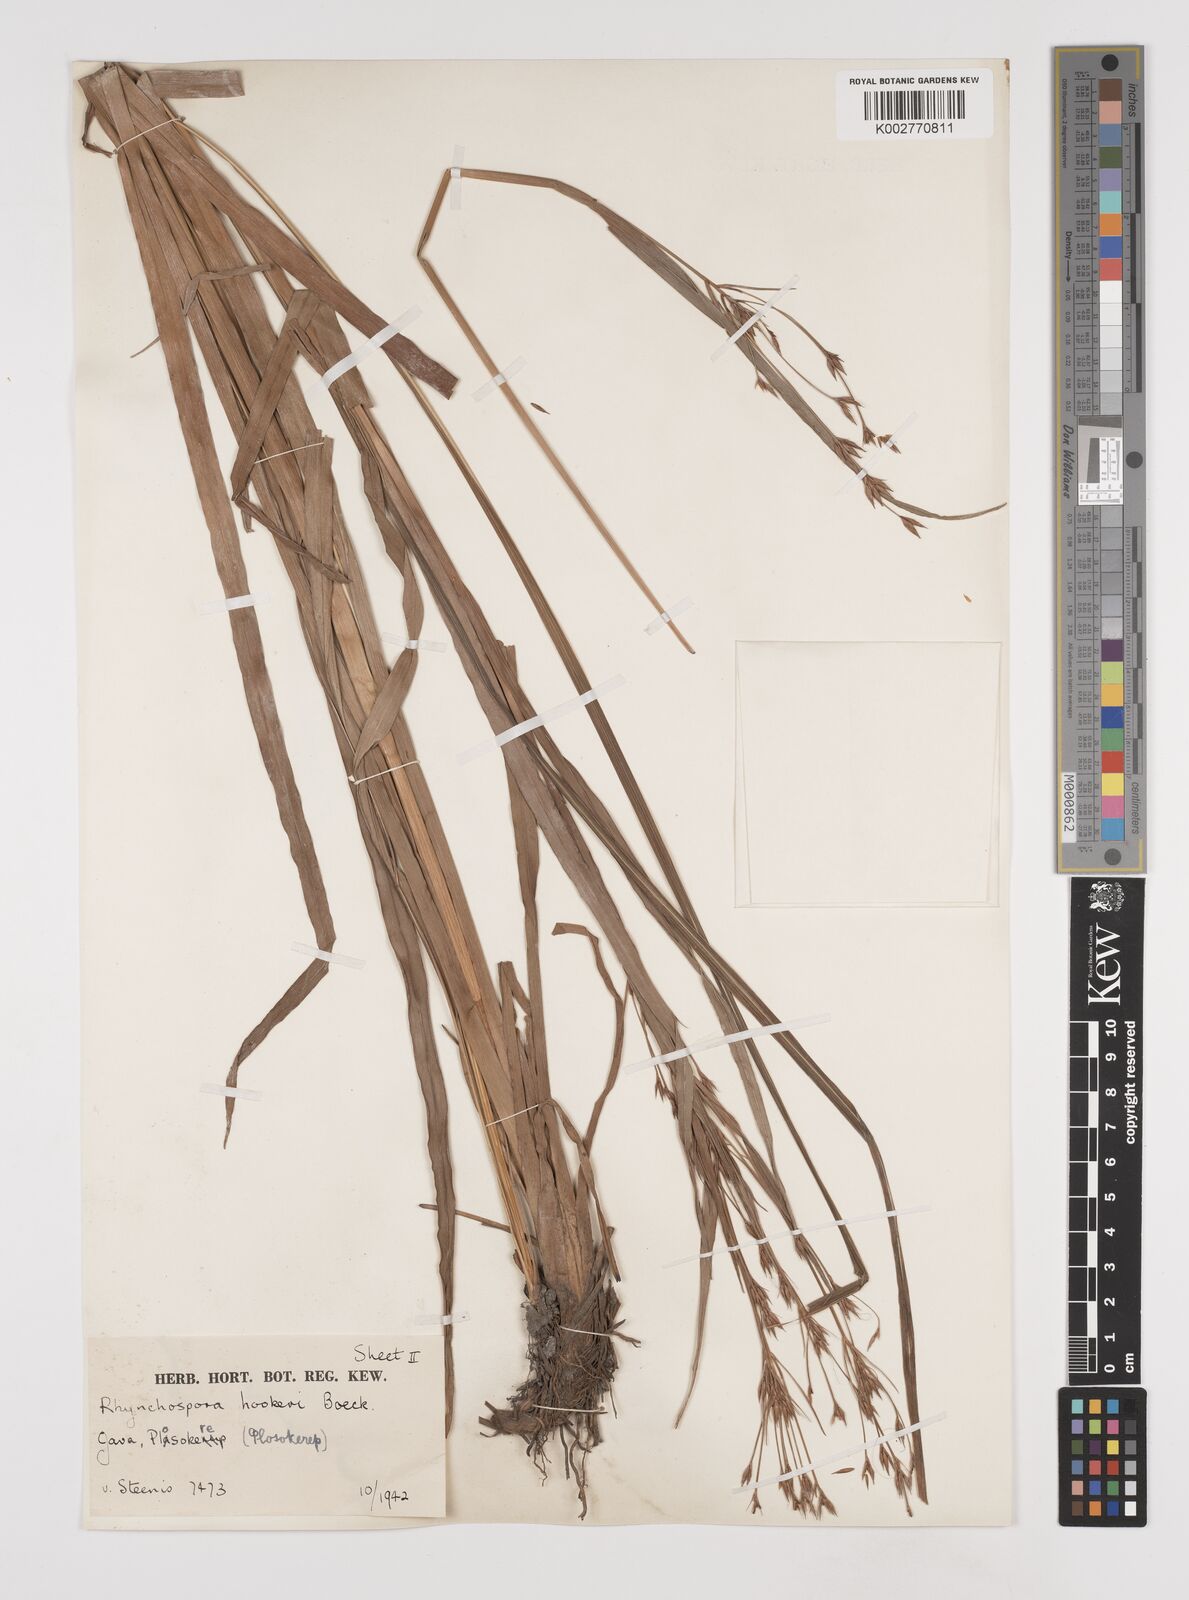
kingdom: Plantae
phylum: Tracheophyta
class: Liliopsida
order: Poales
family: Cyperaceae
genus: Rhynchospora
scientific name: Rhynchospora hookeri
